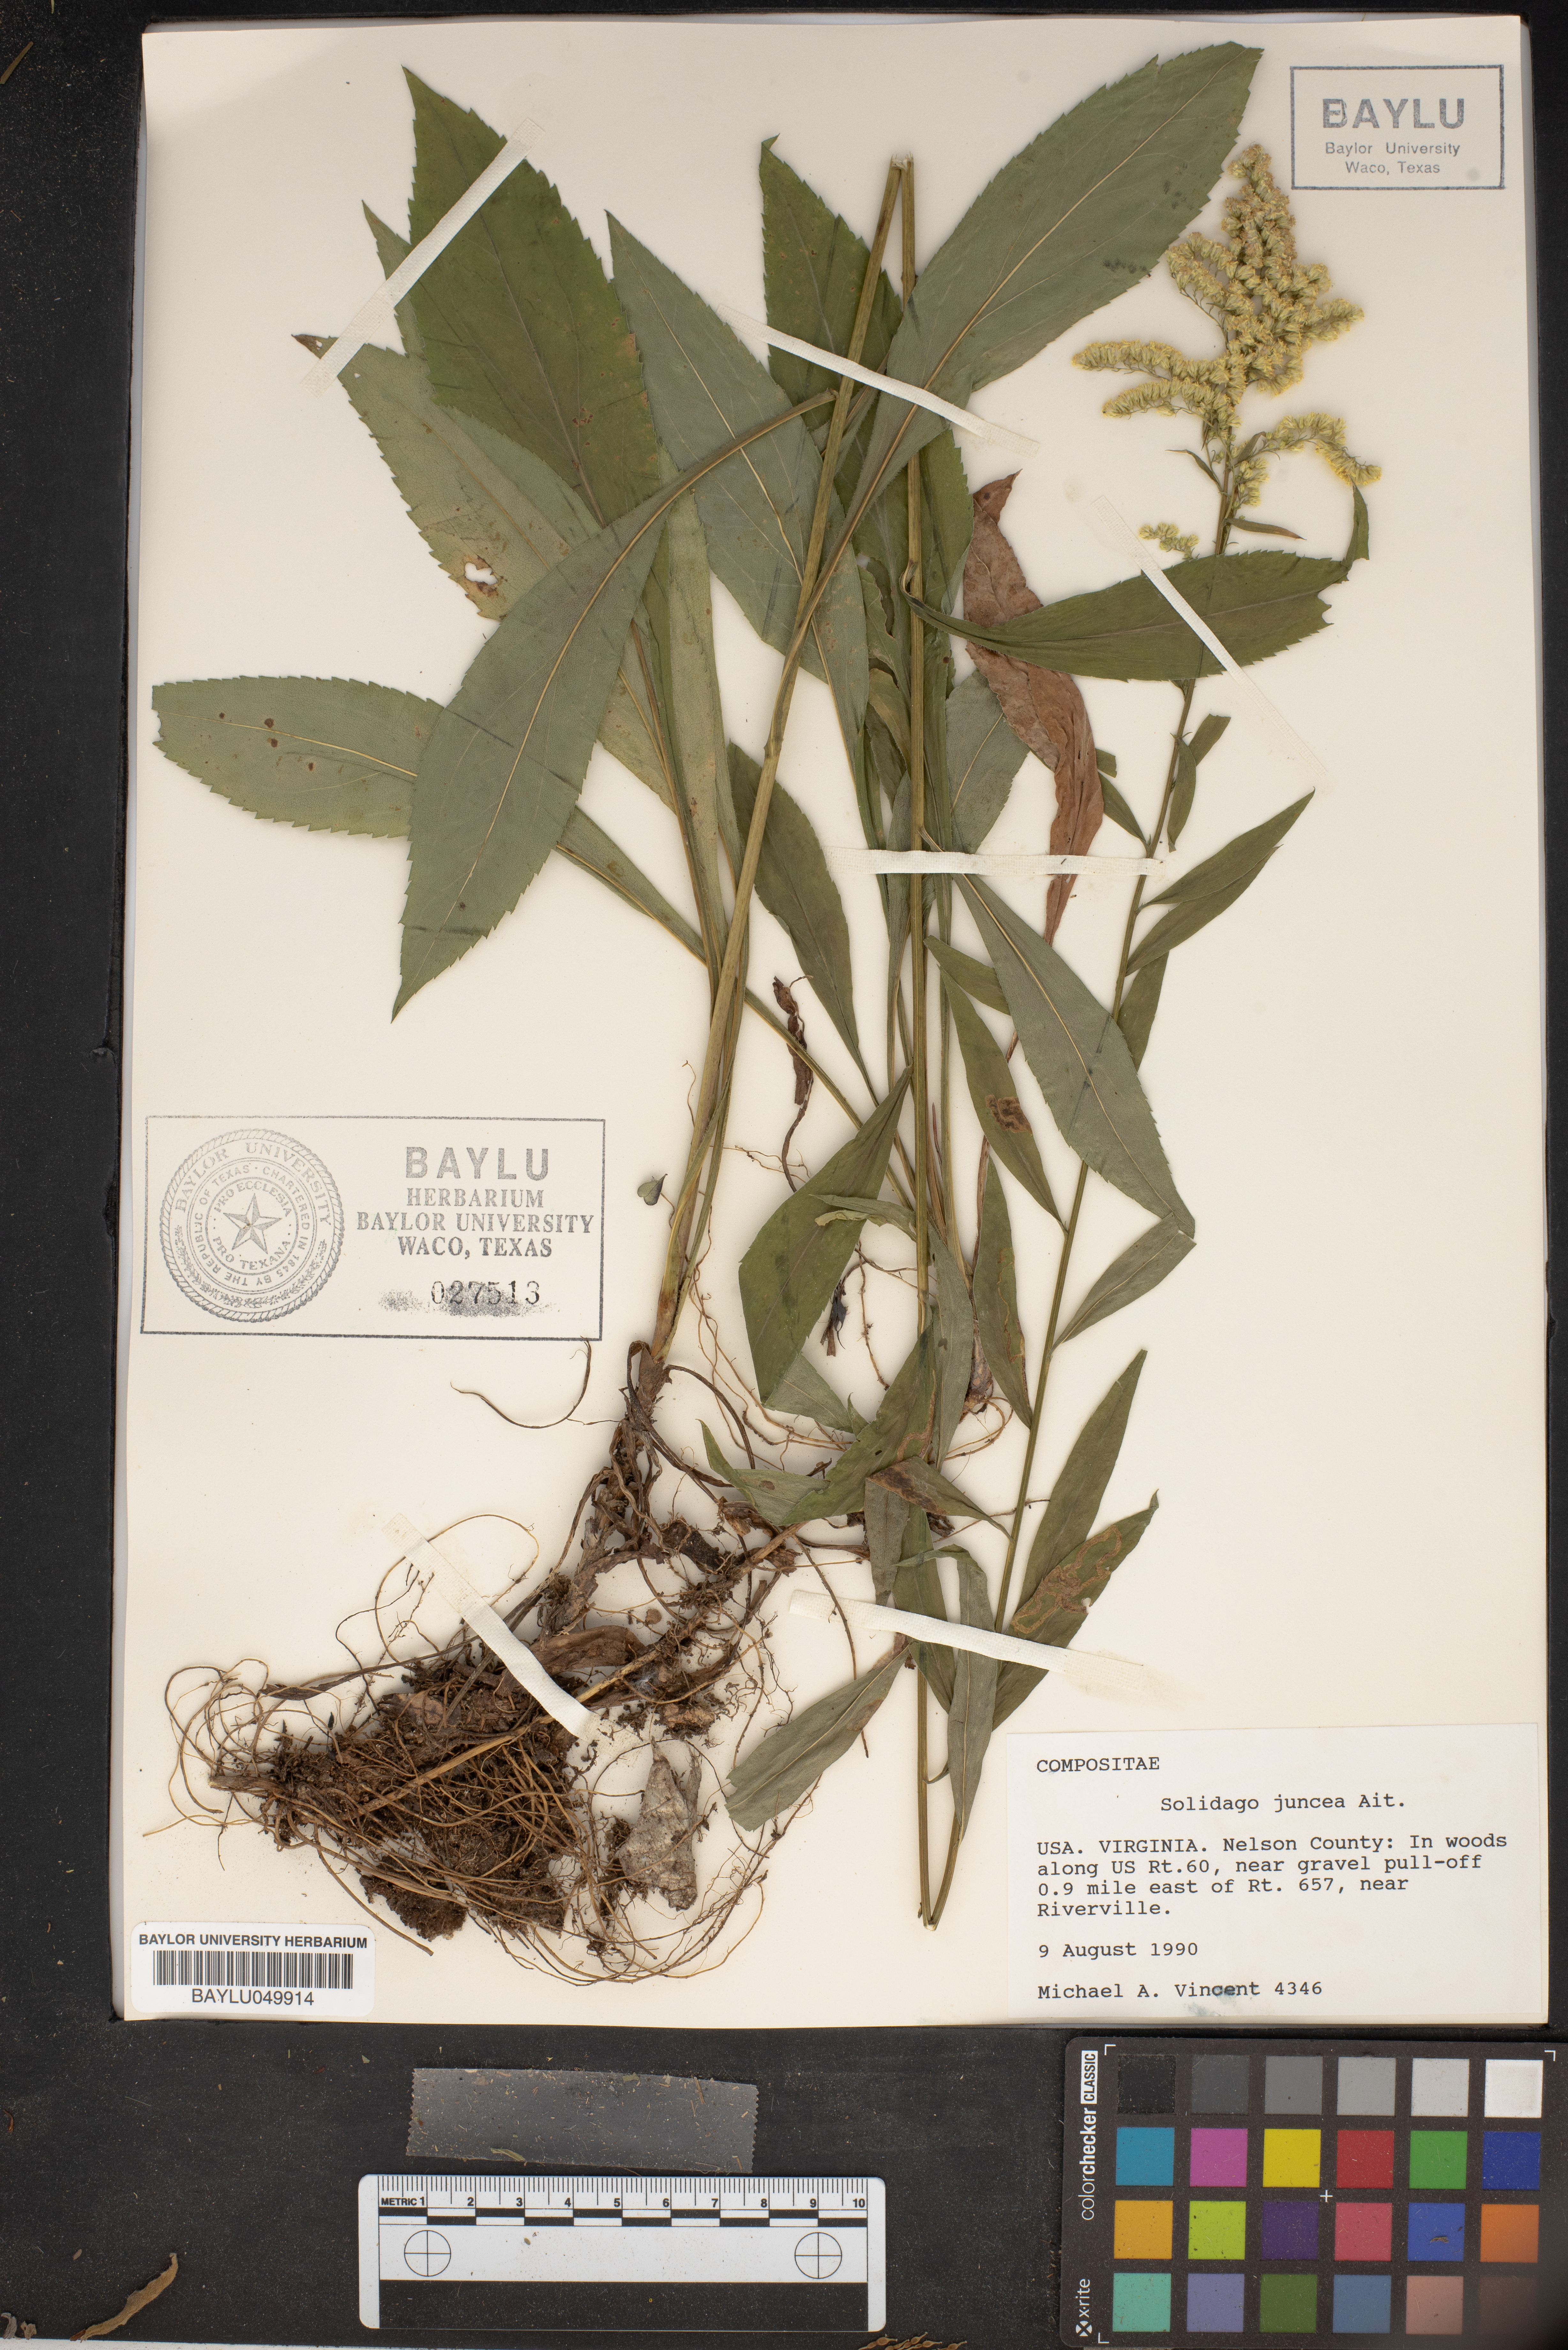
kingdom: Plantae
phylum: Tracheophyta
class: Magnoliopsida
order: Asterales
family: Asteraceae
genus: Solidago
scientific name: Solidago juncea
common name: Early goldenrod
